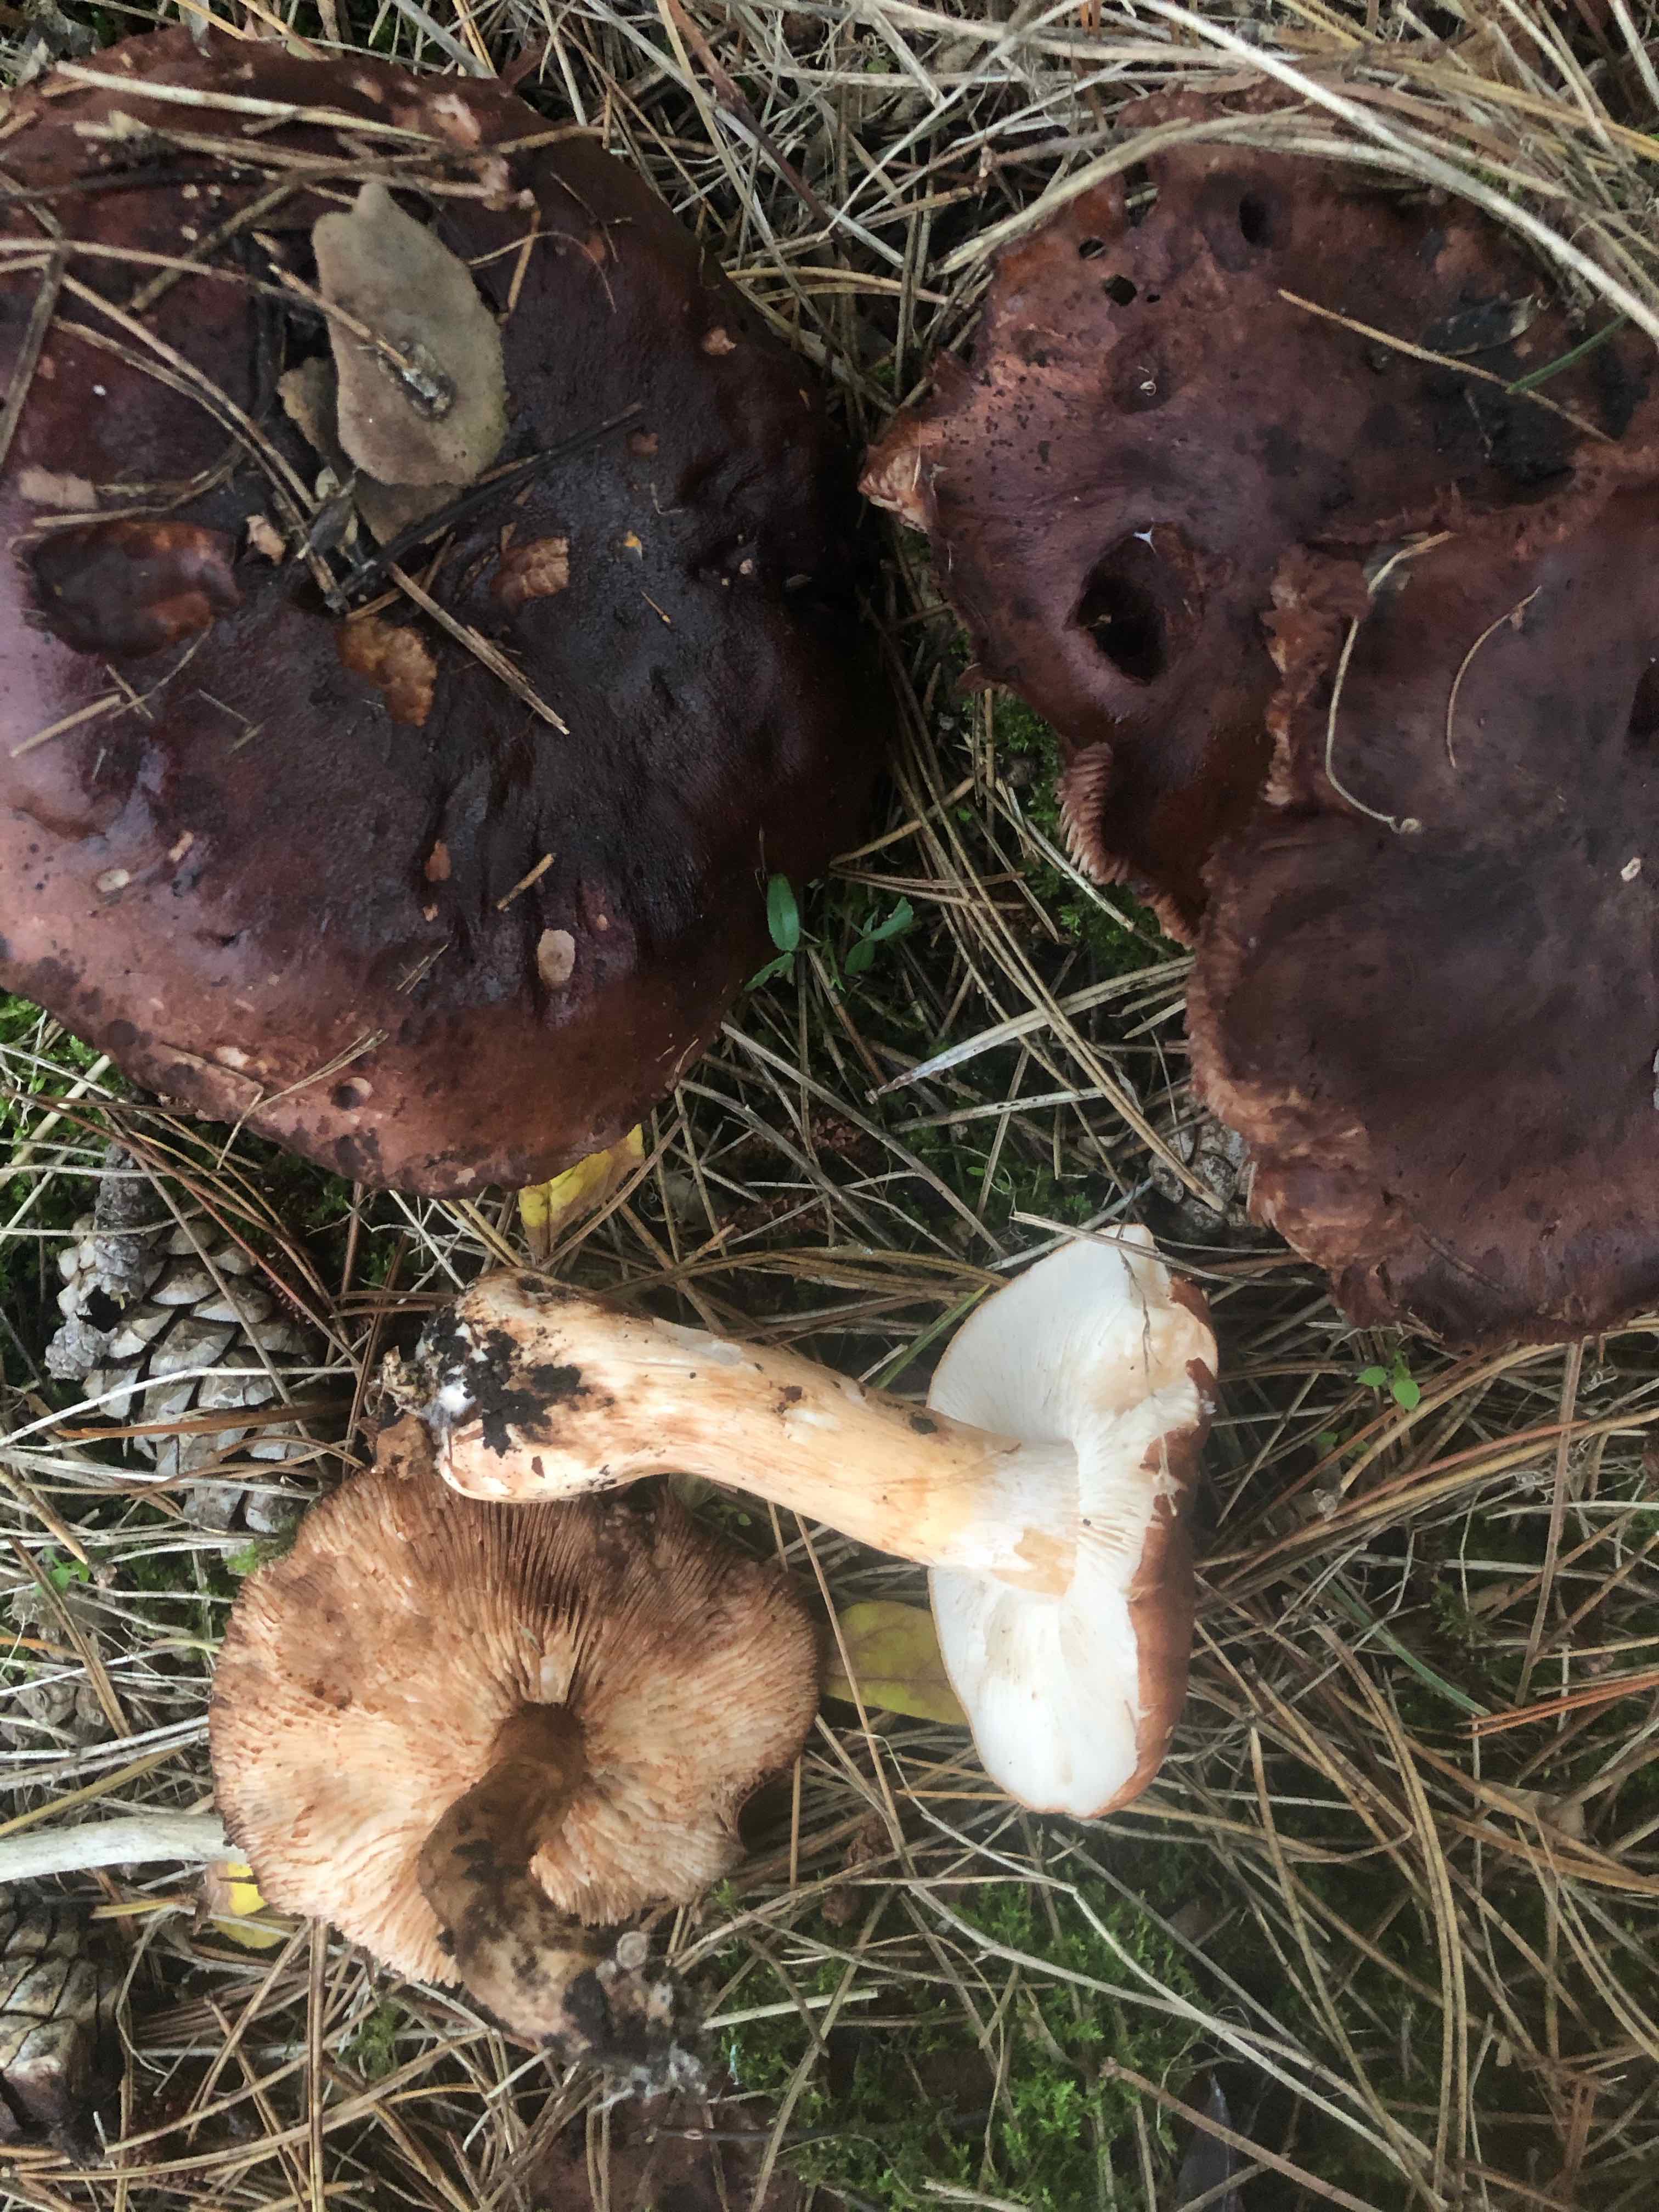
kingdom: Fungi
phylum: Basidiomycota
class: Agaricomycetes
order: Agaricales
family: Tricholomataceae
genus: Tricholoma
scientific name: Tricholoma fracticum
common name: hvidhalset ridderhat
